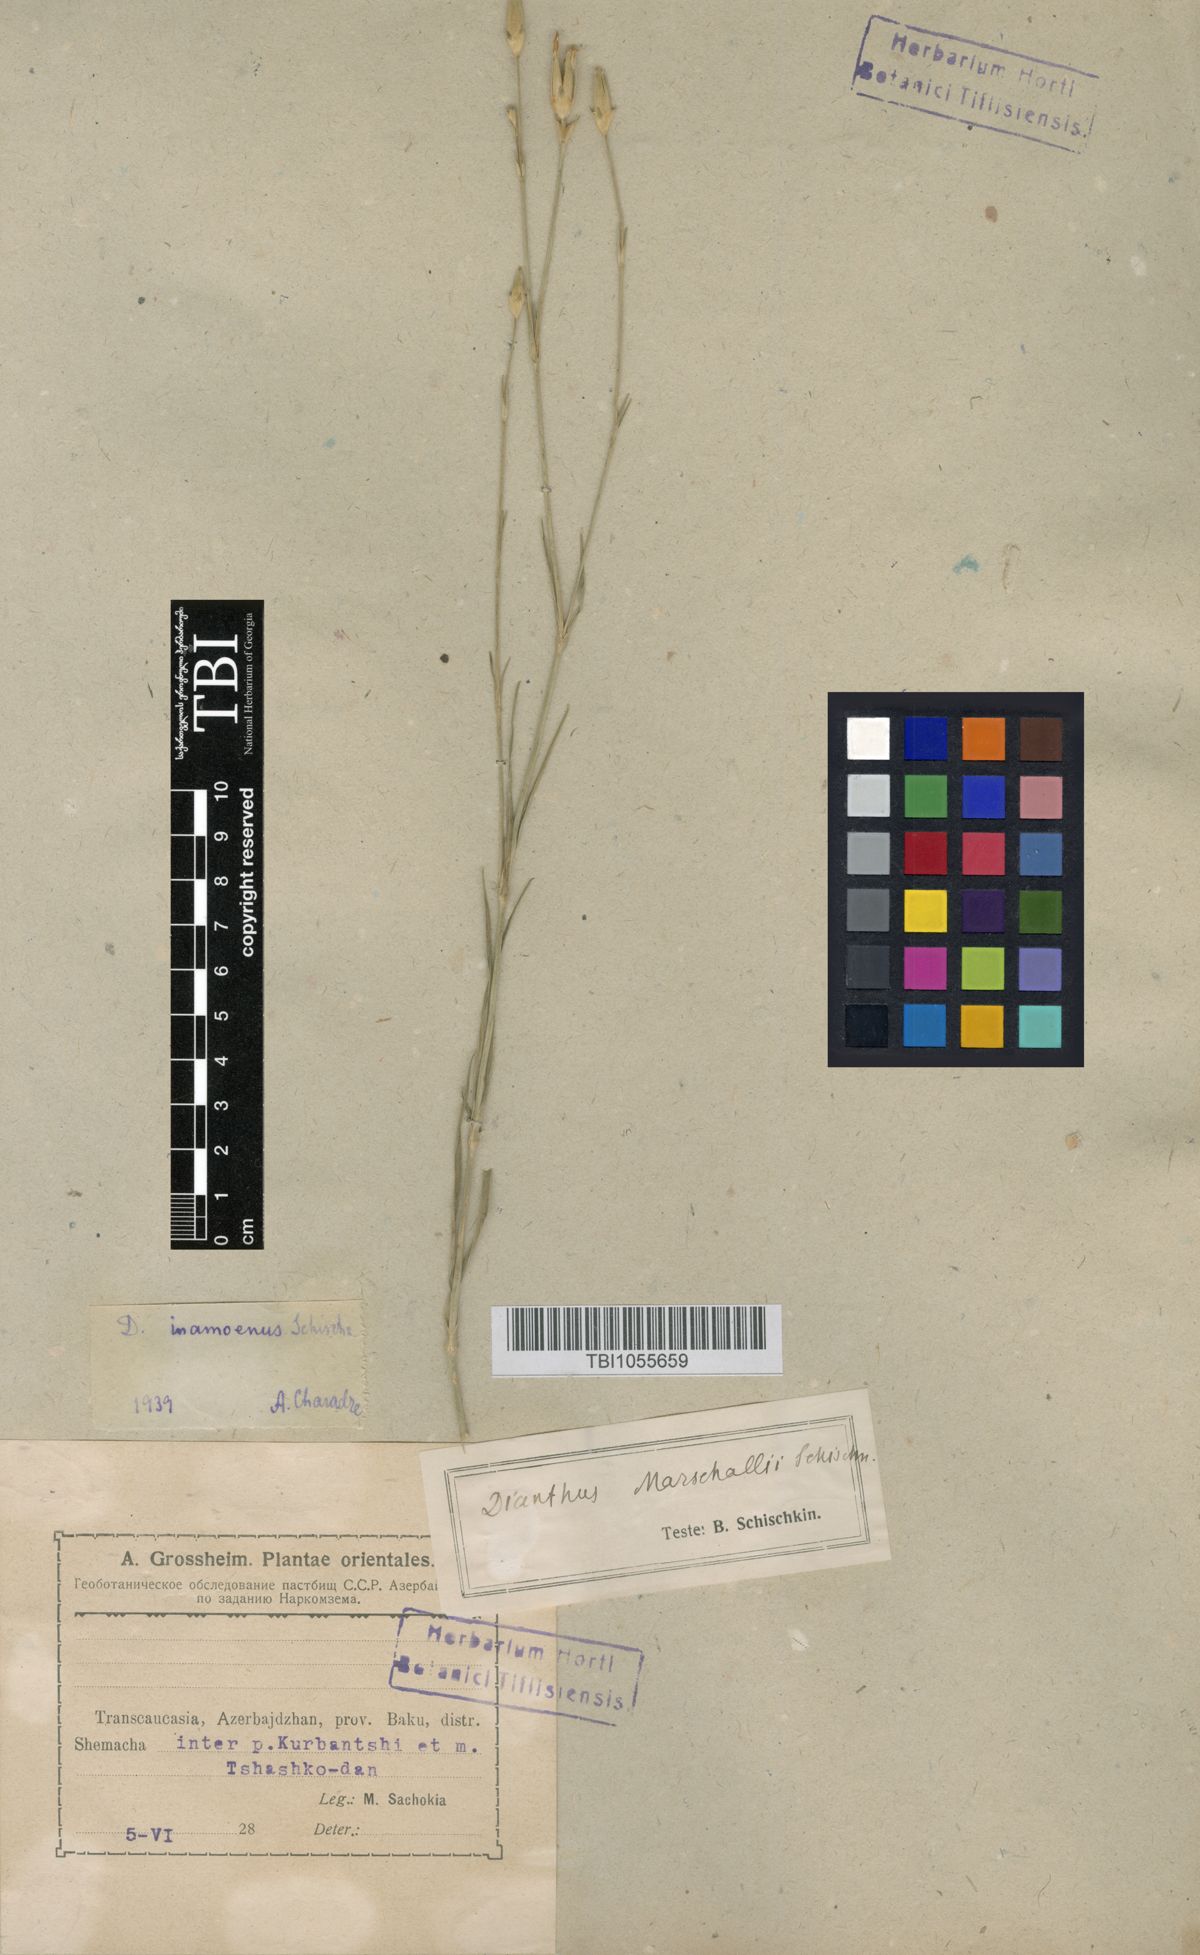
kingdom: Plantae
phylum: Tracheophyta
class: Magnoliopsida
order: Caryophyllales
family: Caryophyllaceae
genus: Dianthus
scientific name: Dianthus inamoenus
